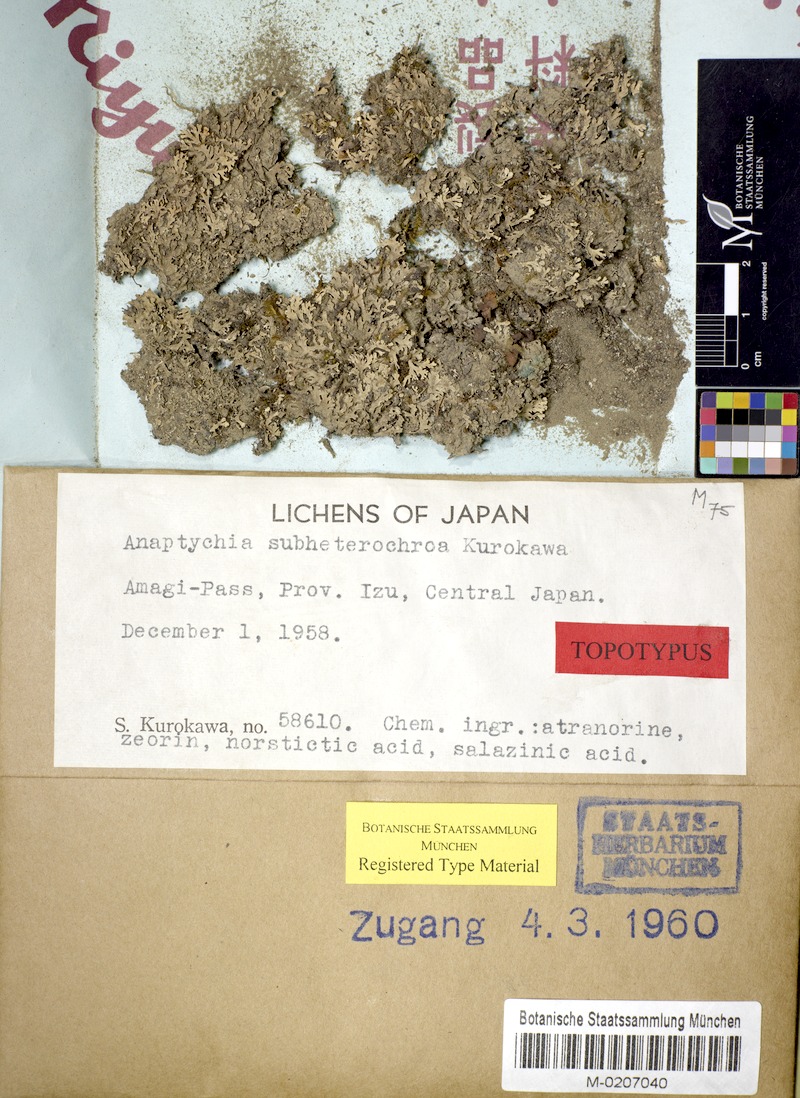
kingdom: Fungi
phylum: Ascomycota
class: Lecanoromycetes
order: Caliciales
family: Physciaceae
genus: Polyblastidium
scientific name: Polyblastidium dendriticum
